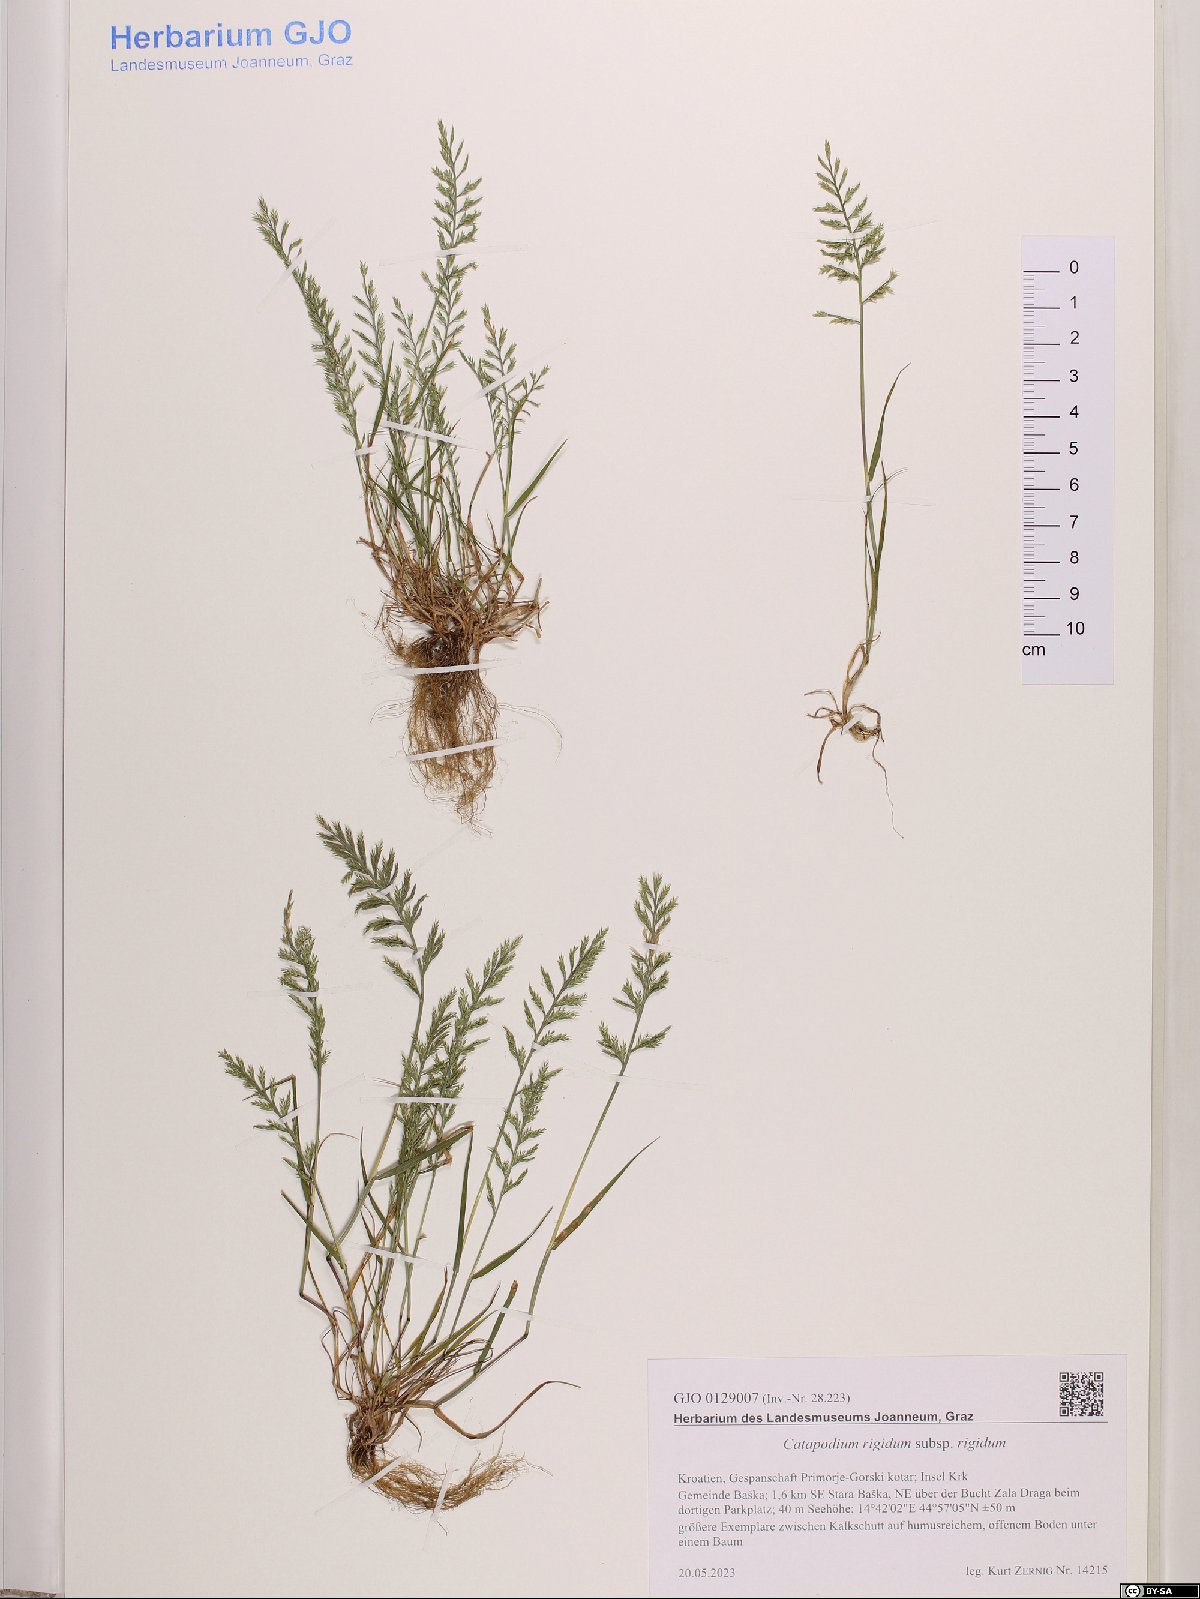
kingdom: Plantae
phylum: Tracheophyta
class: Liliopsida
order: Poales
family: Poaceae
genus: Catapodium
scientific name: Catapodium rigidum
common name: Fern-grass
